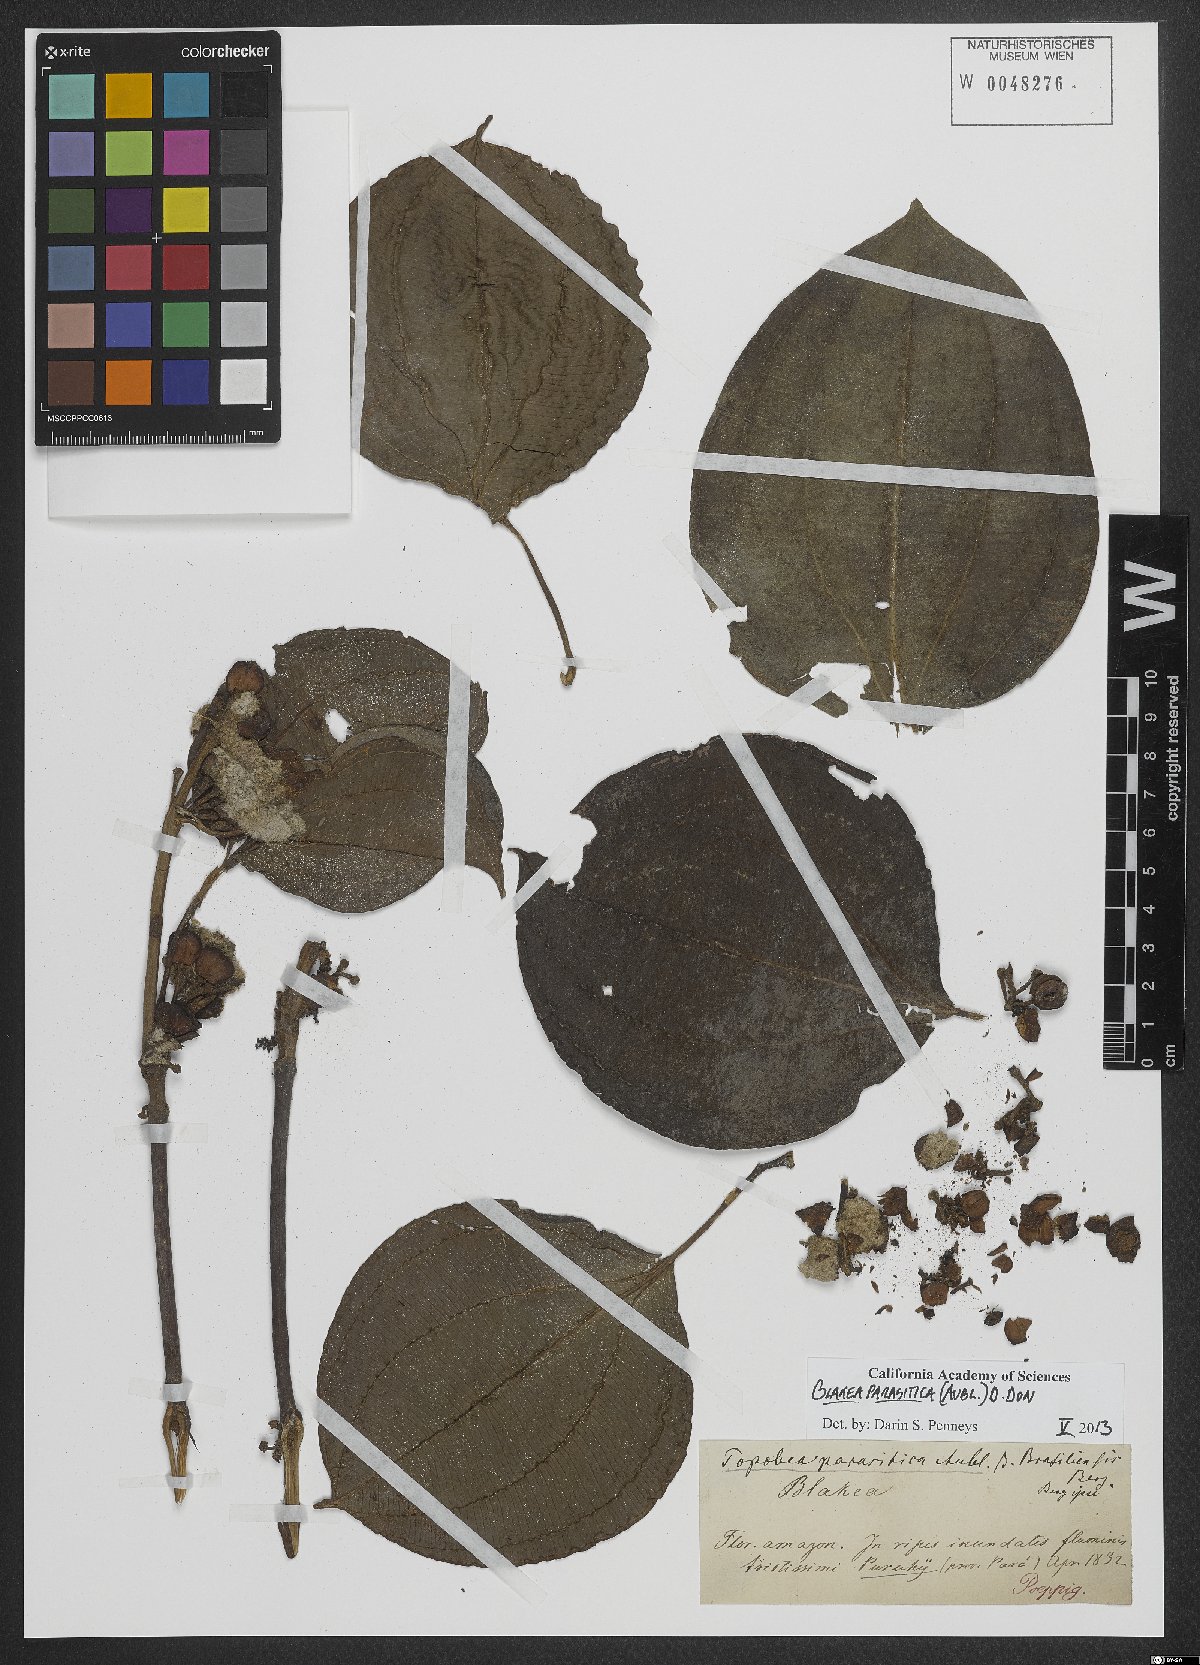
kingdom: Plantae
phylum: Tracheophyta
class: Magnoliopsida
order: Myrtales
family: Melastomataceae
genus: Blakea
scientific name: Blakea parasitica
